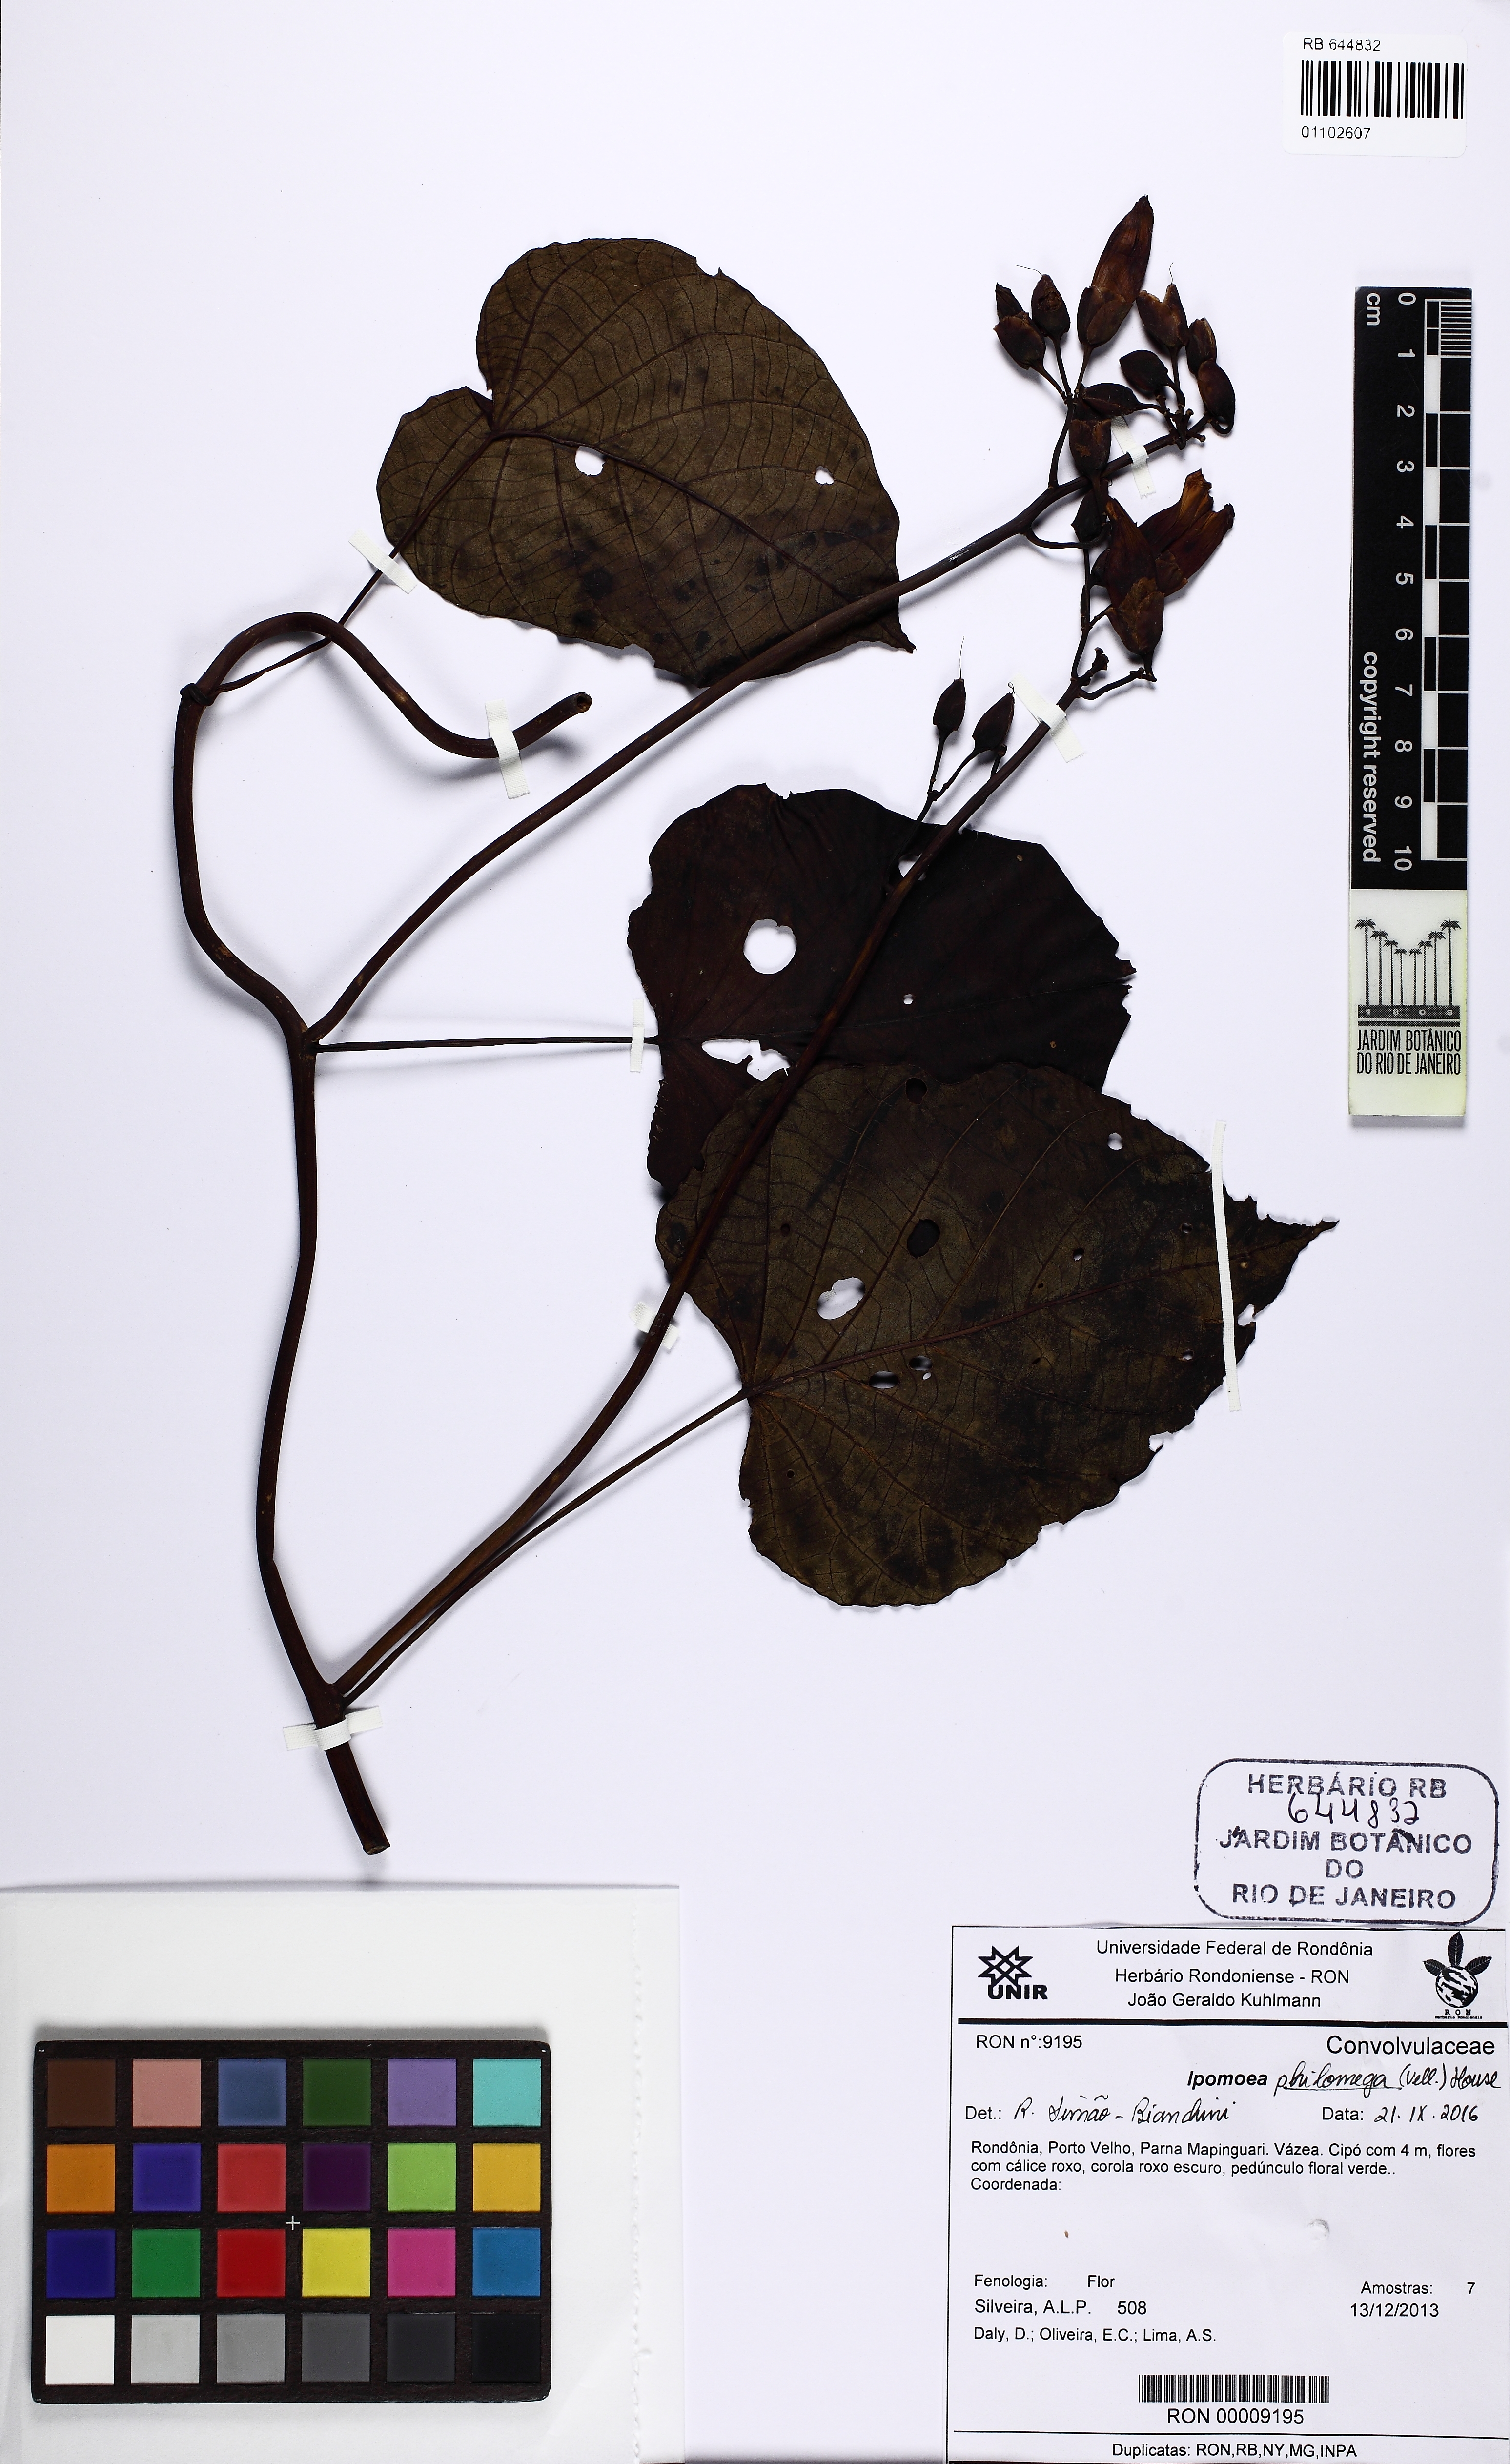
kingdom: Plantae
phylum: Tracheophyta
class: Magnoliopsida
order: Solanales
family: Convolvulaceae
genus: Ipomoea
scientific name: Ipomoea philomega
